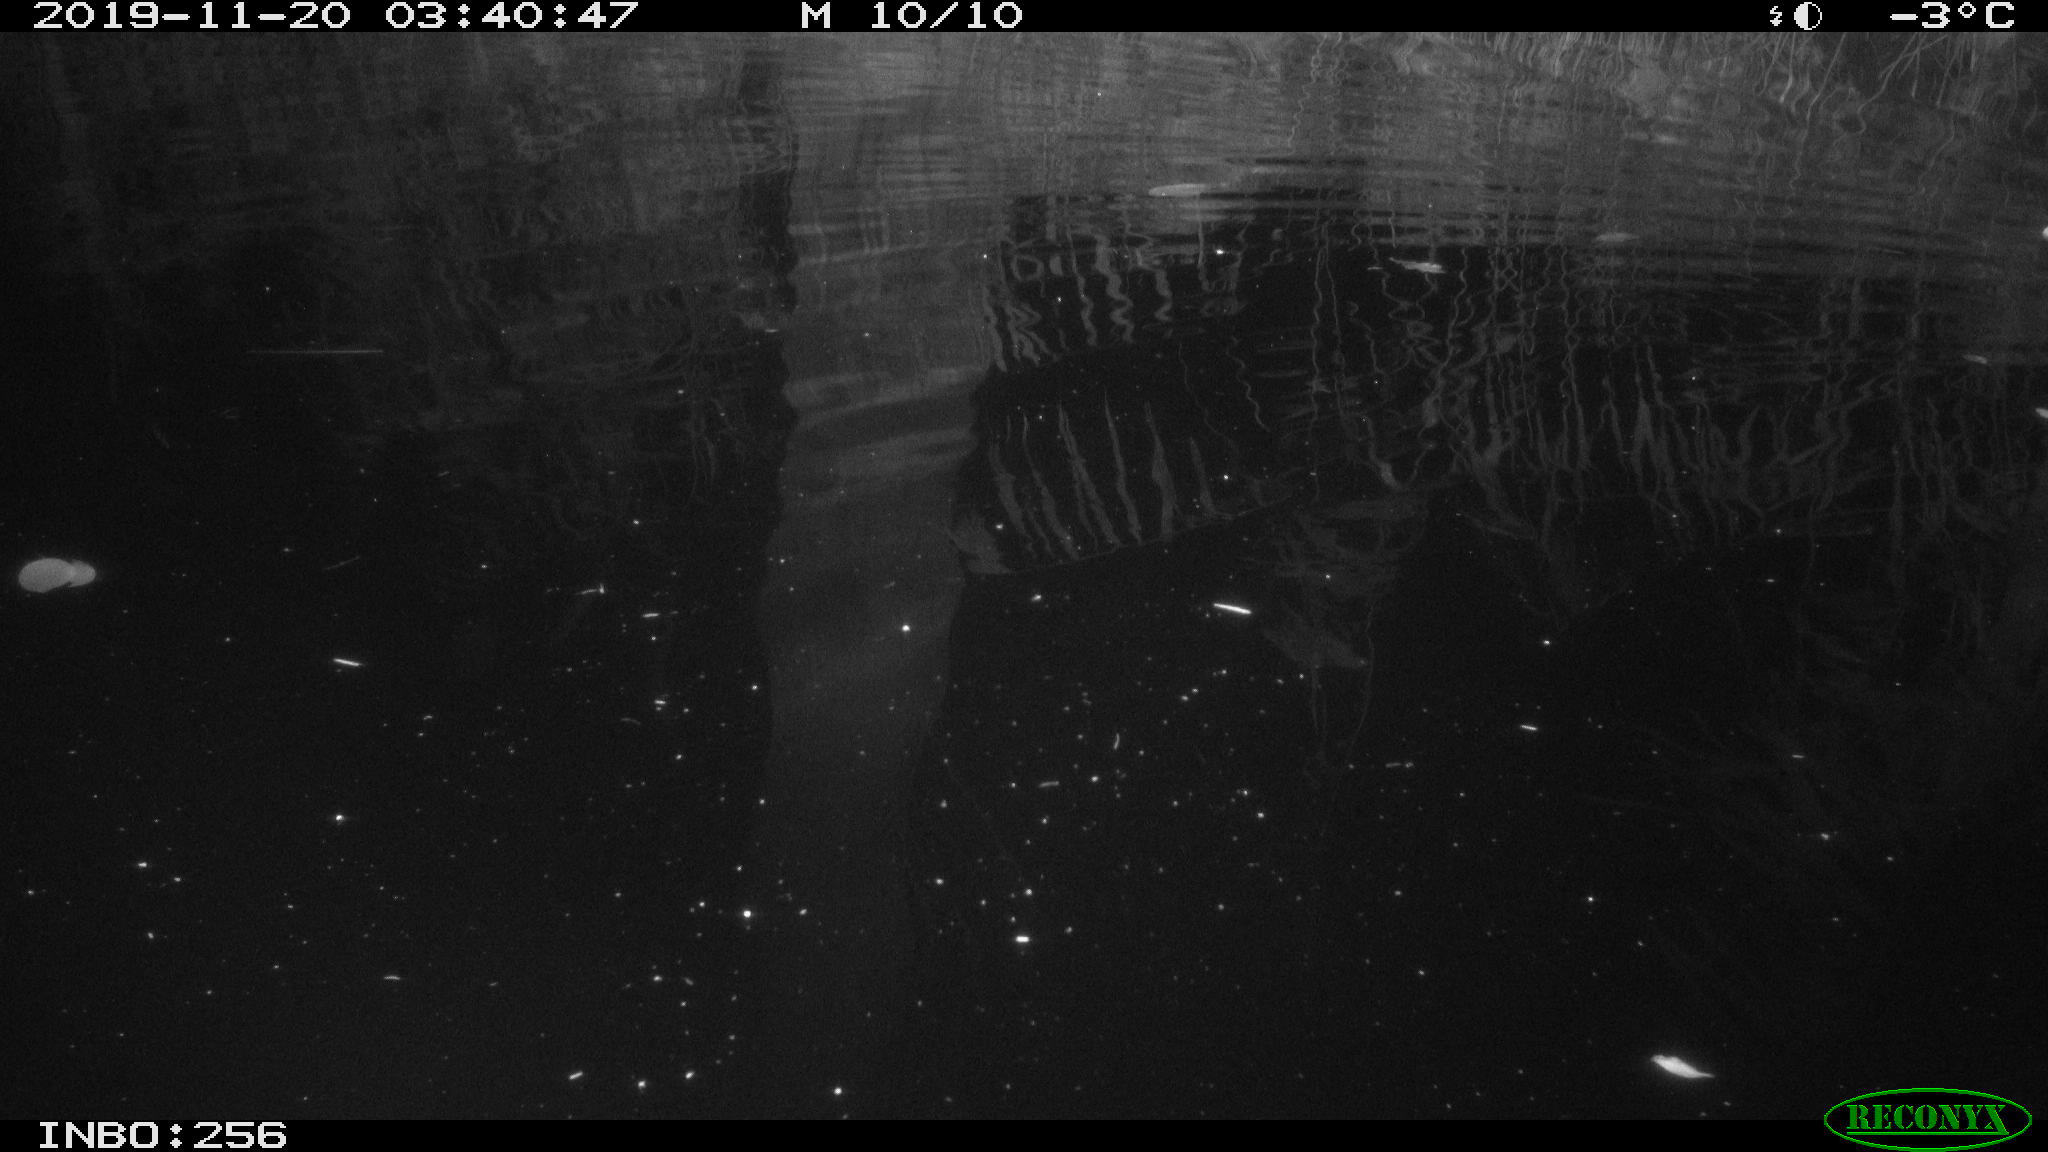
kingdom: Animalia
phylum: Chordata
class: Mammalia
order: Rodentia
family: Cricetidae
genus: Ondatra
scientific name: Ondatra zibethicus
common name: Muskrat
